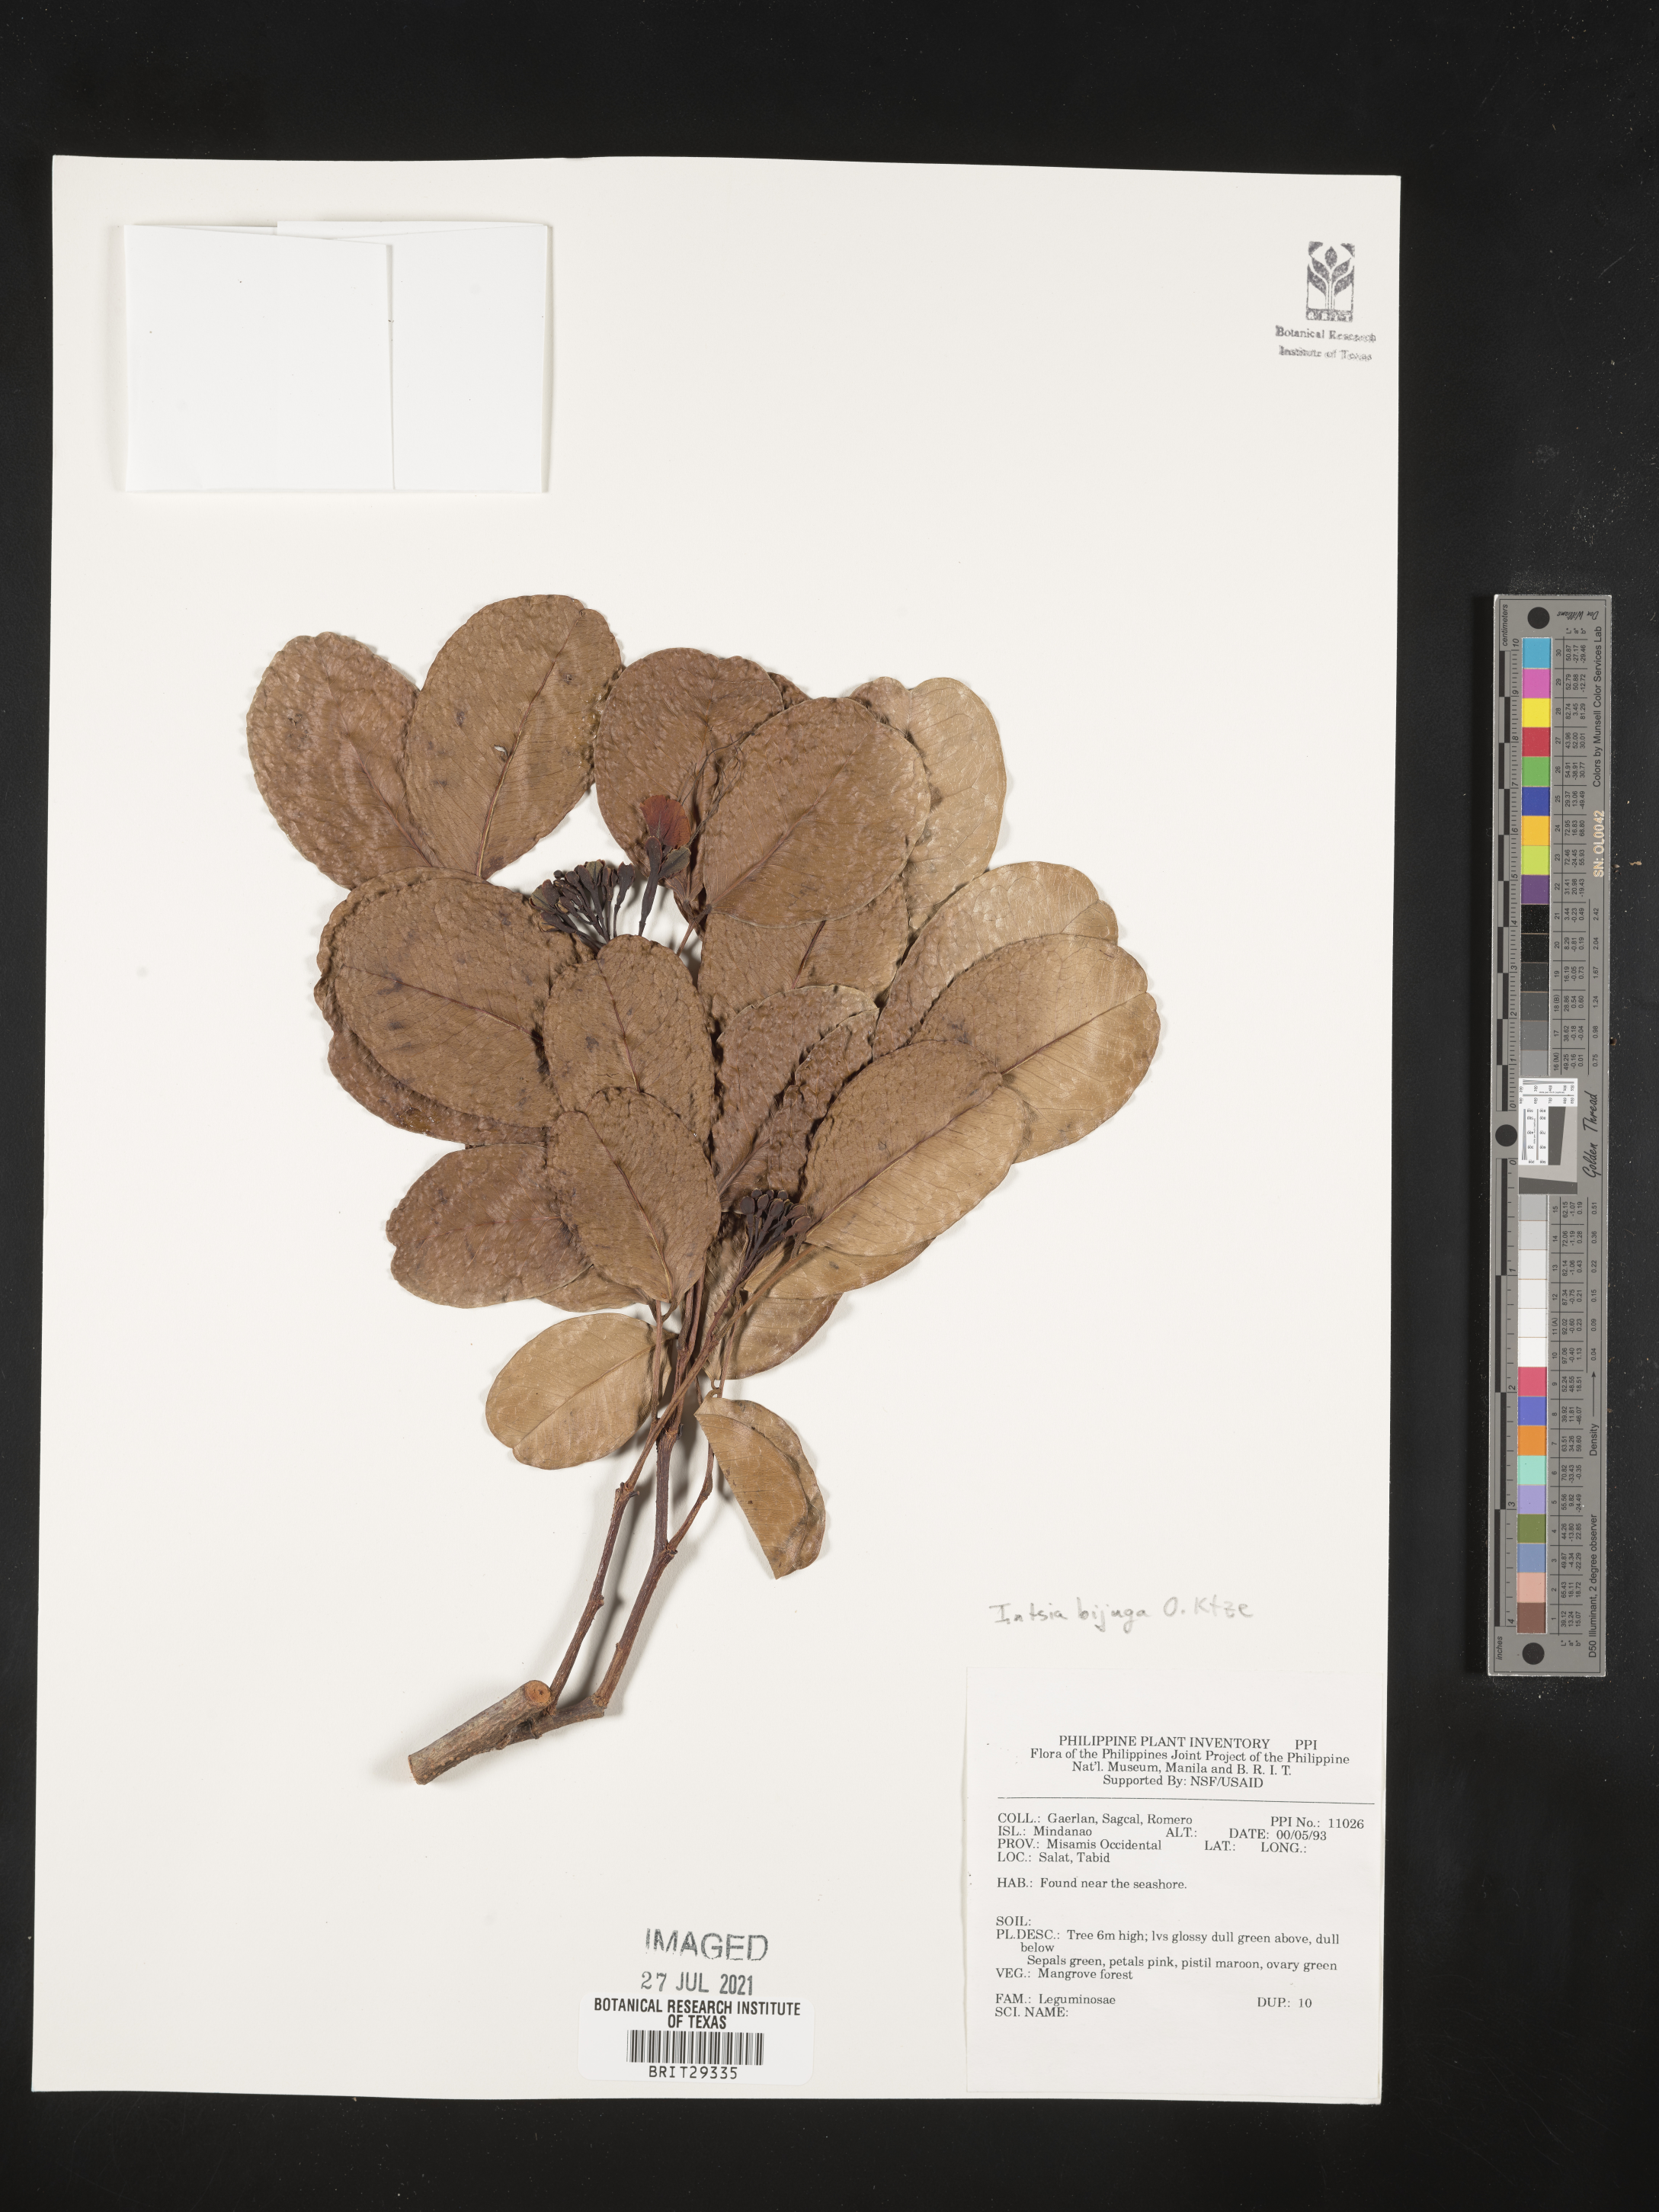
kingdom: Plantae
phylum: Tracheophyta
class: Magnoliopsida
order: Fabales
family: Fabaceae
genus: Intsia
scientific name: Intsia bijuga
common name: Moluccan ironwood
